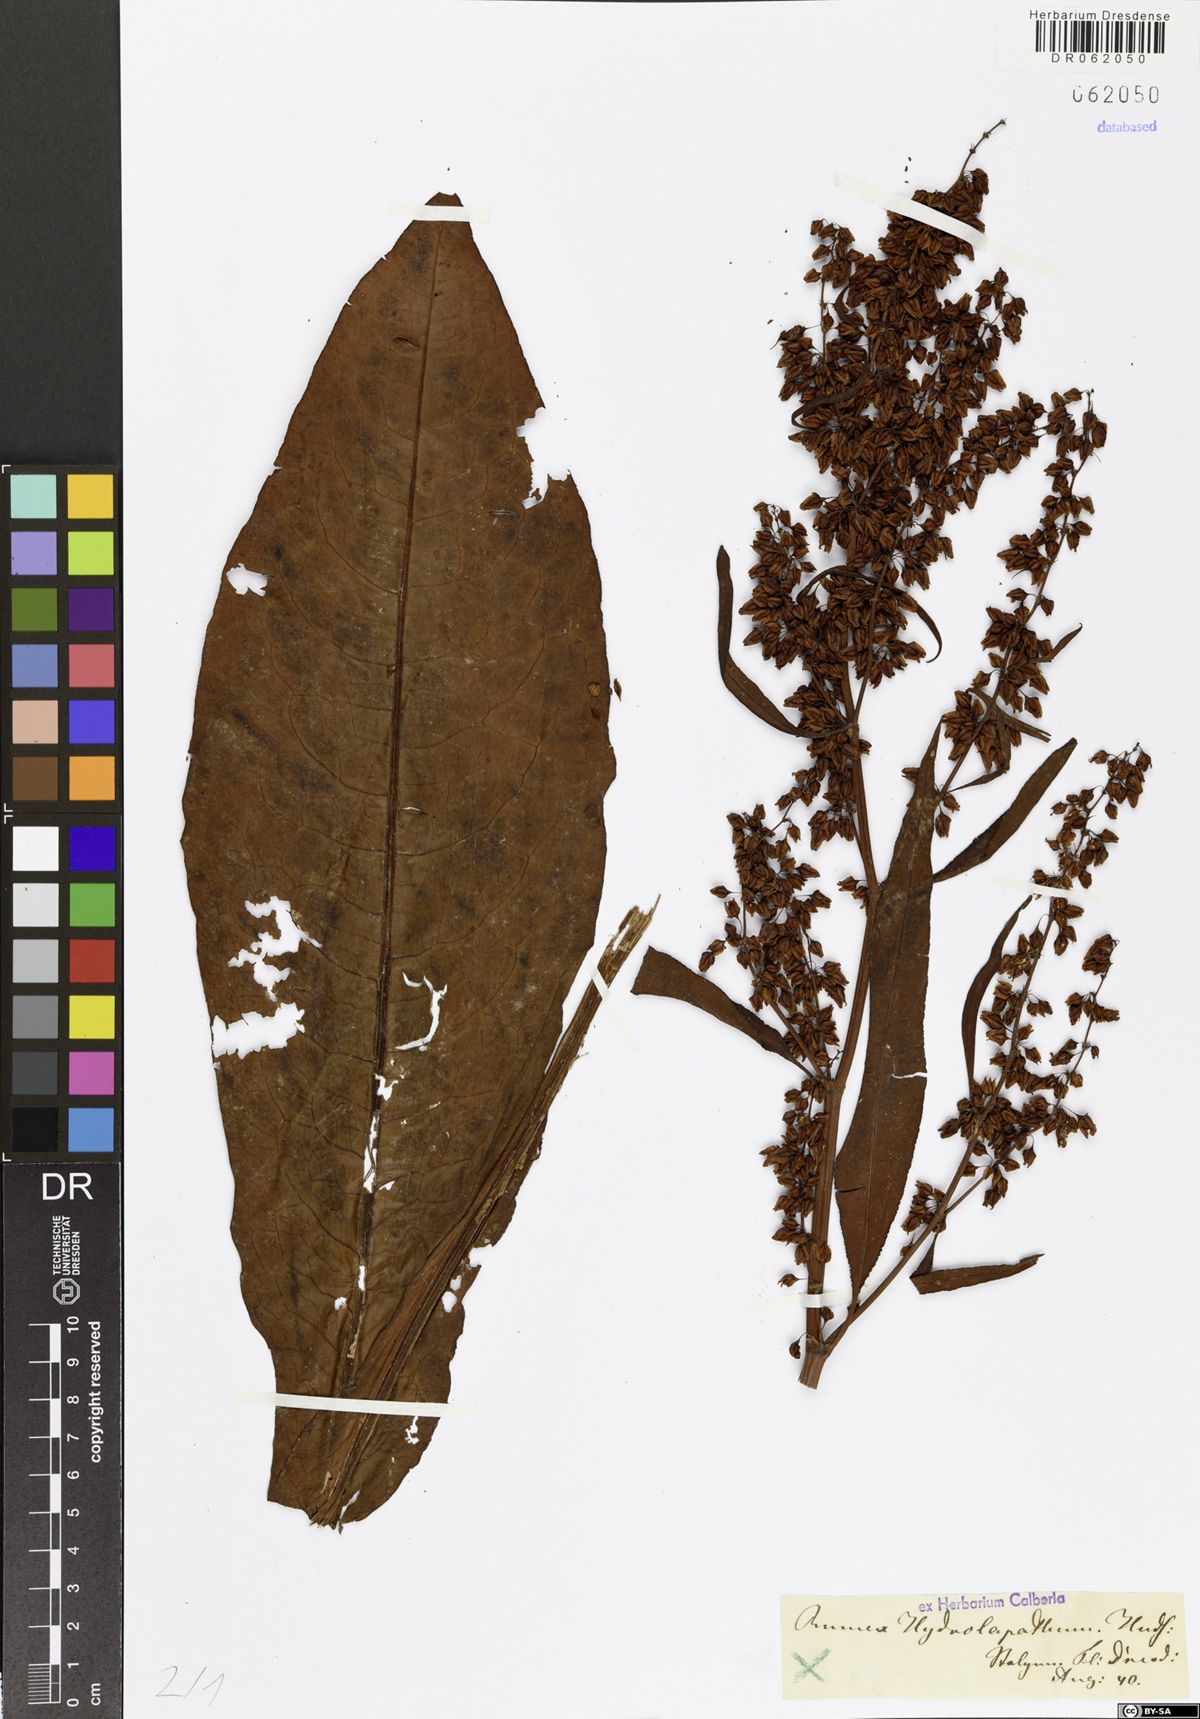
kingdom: Plantae
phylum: Tracheophyta
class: Magnoliopsida
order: Caryophyllales
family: Polygonaceae
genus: Rumex
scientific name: Rumex hydrolapathum
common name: Water dock
